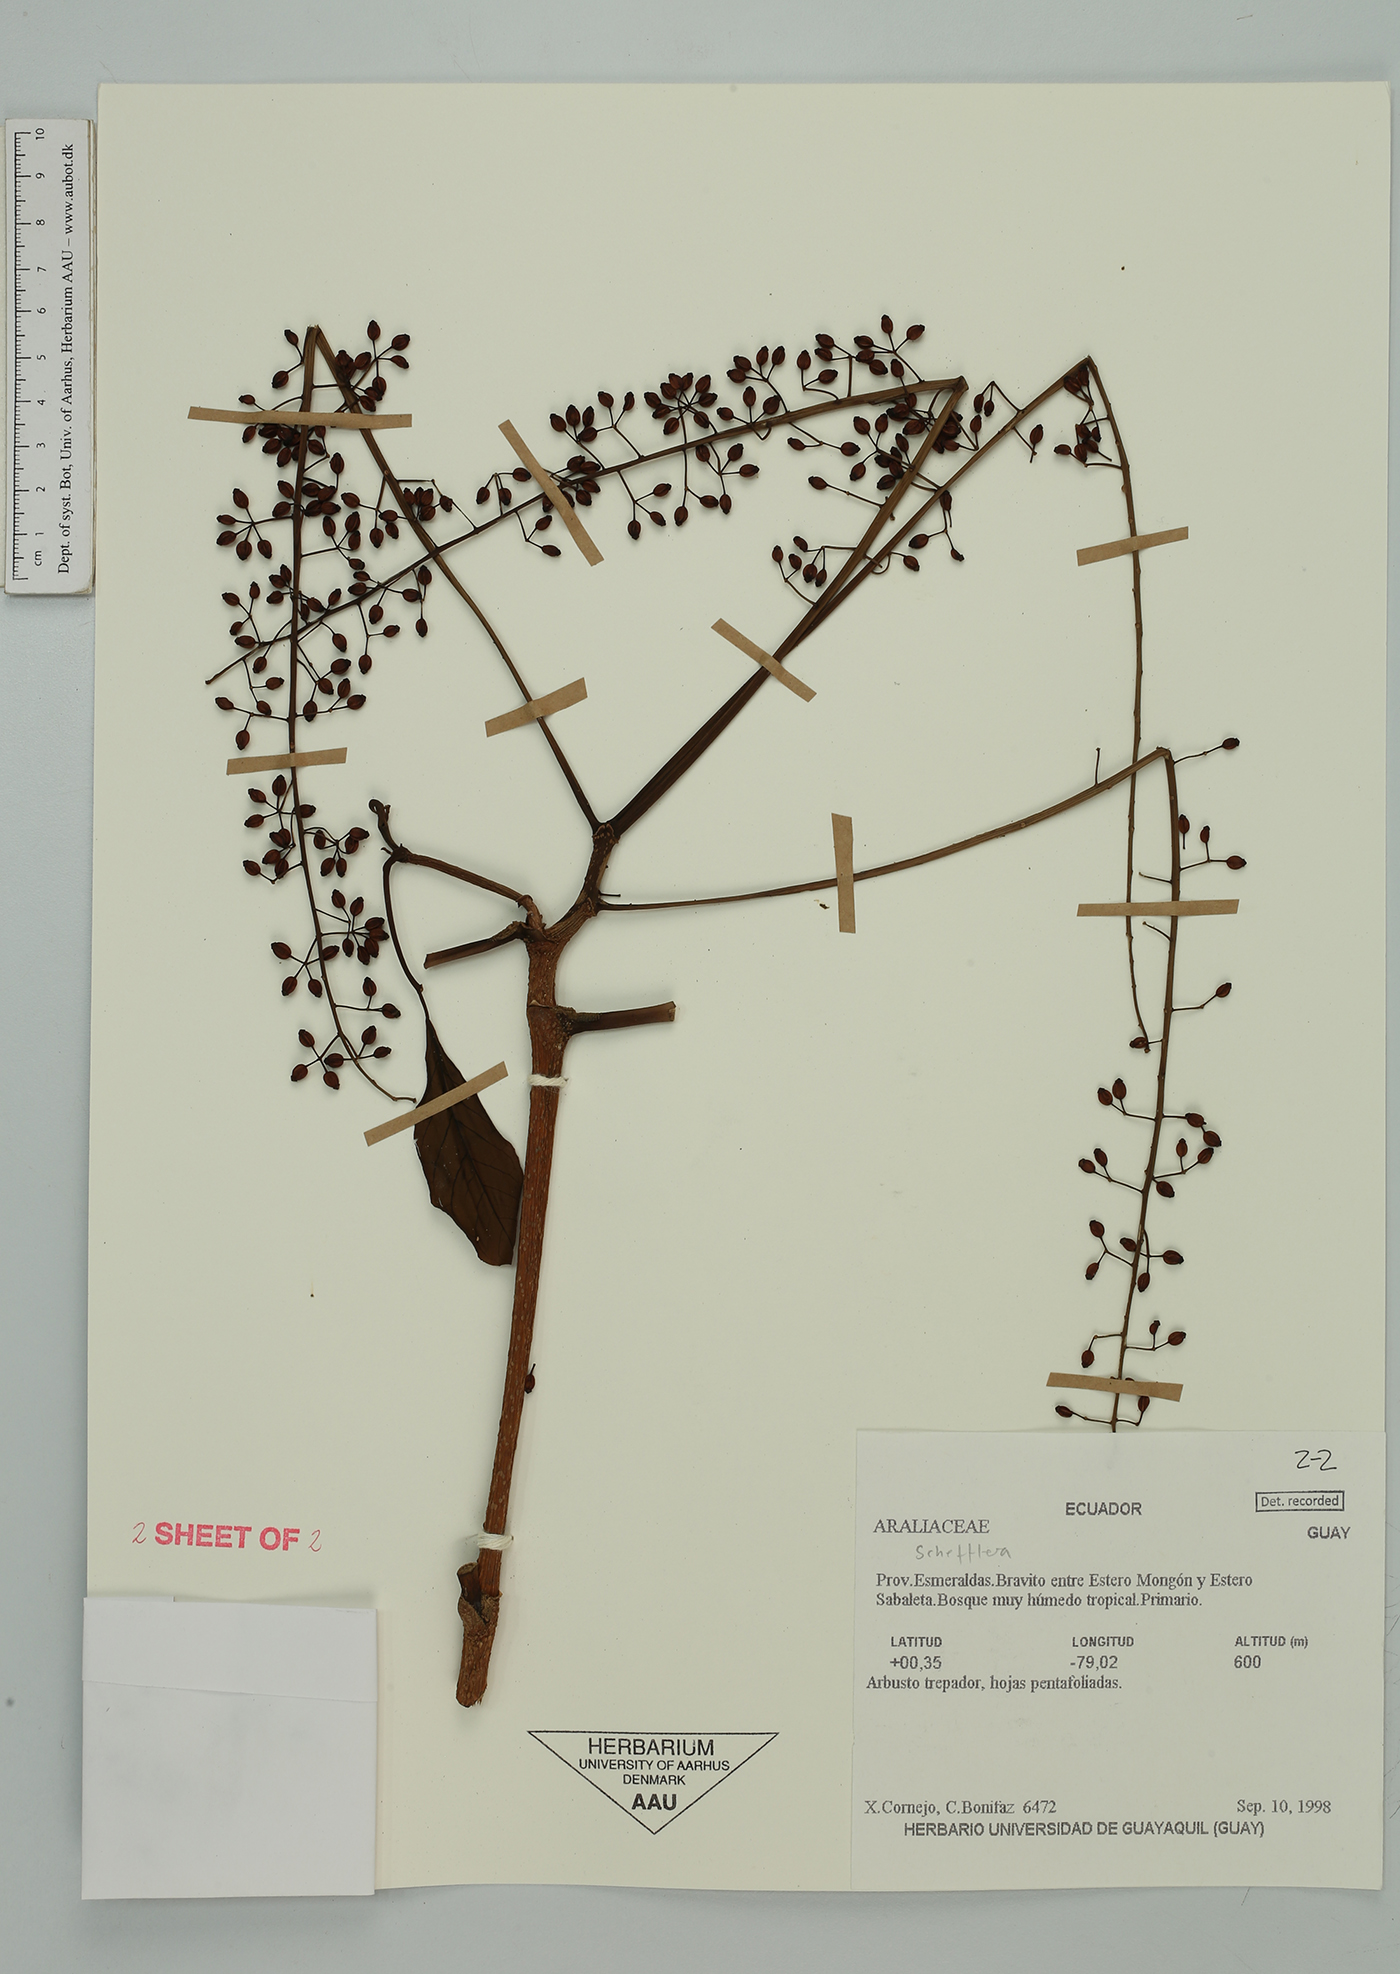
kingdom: Plantae
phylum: Tracheophyta
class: Magnoliopsida
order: Apiales
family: Araliaceae
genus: Sciodaphyllum
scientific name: Sciodaphyllum
